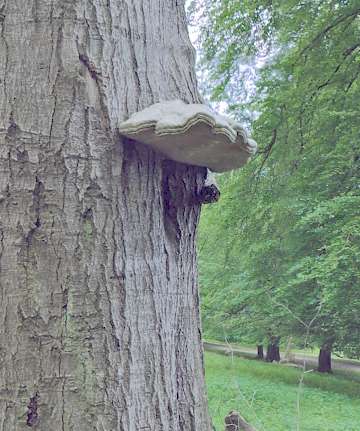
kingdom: Fungi
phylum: Basidiomycota
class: Agaricomycetes
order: Polyporales
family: Polyporaceae
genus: Fomes
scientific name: Fomes fomentarius
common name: tøndersvamp
